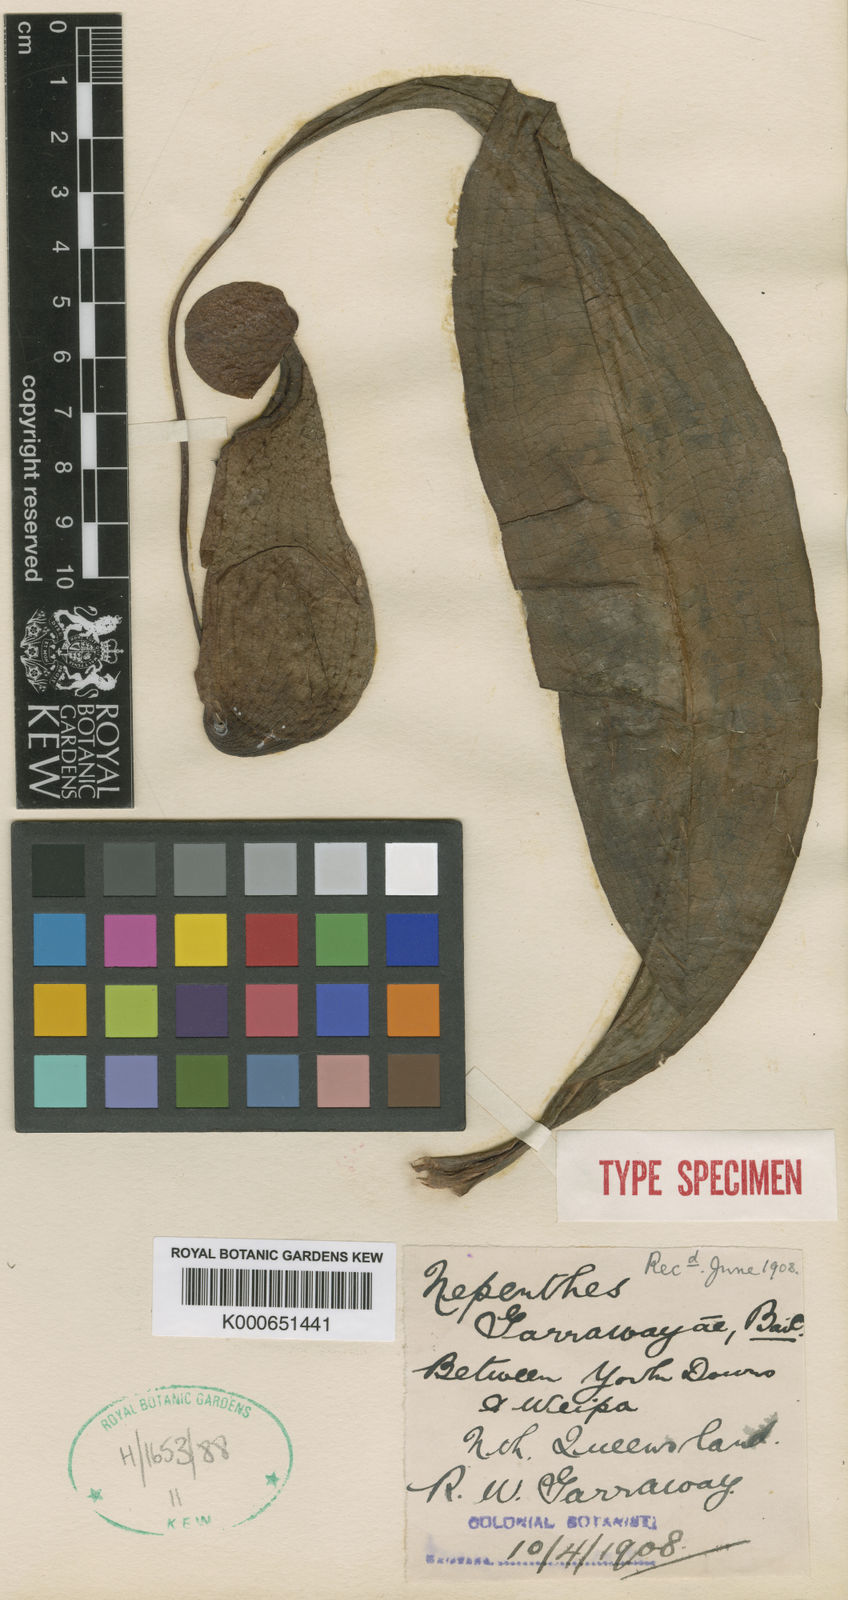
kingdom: Plantae
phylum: Tracheophyta
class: Magnoliopsida
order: Caryophyllales
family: Nepenthaceae
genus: Nepenthes
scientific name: Nepenthes mirabilis
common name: Tropical pitcherplant
